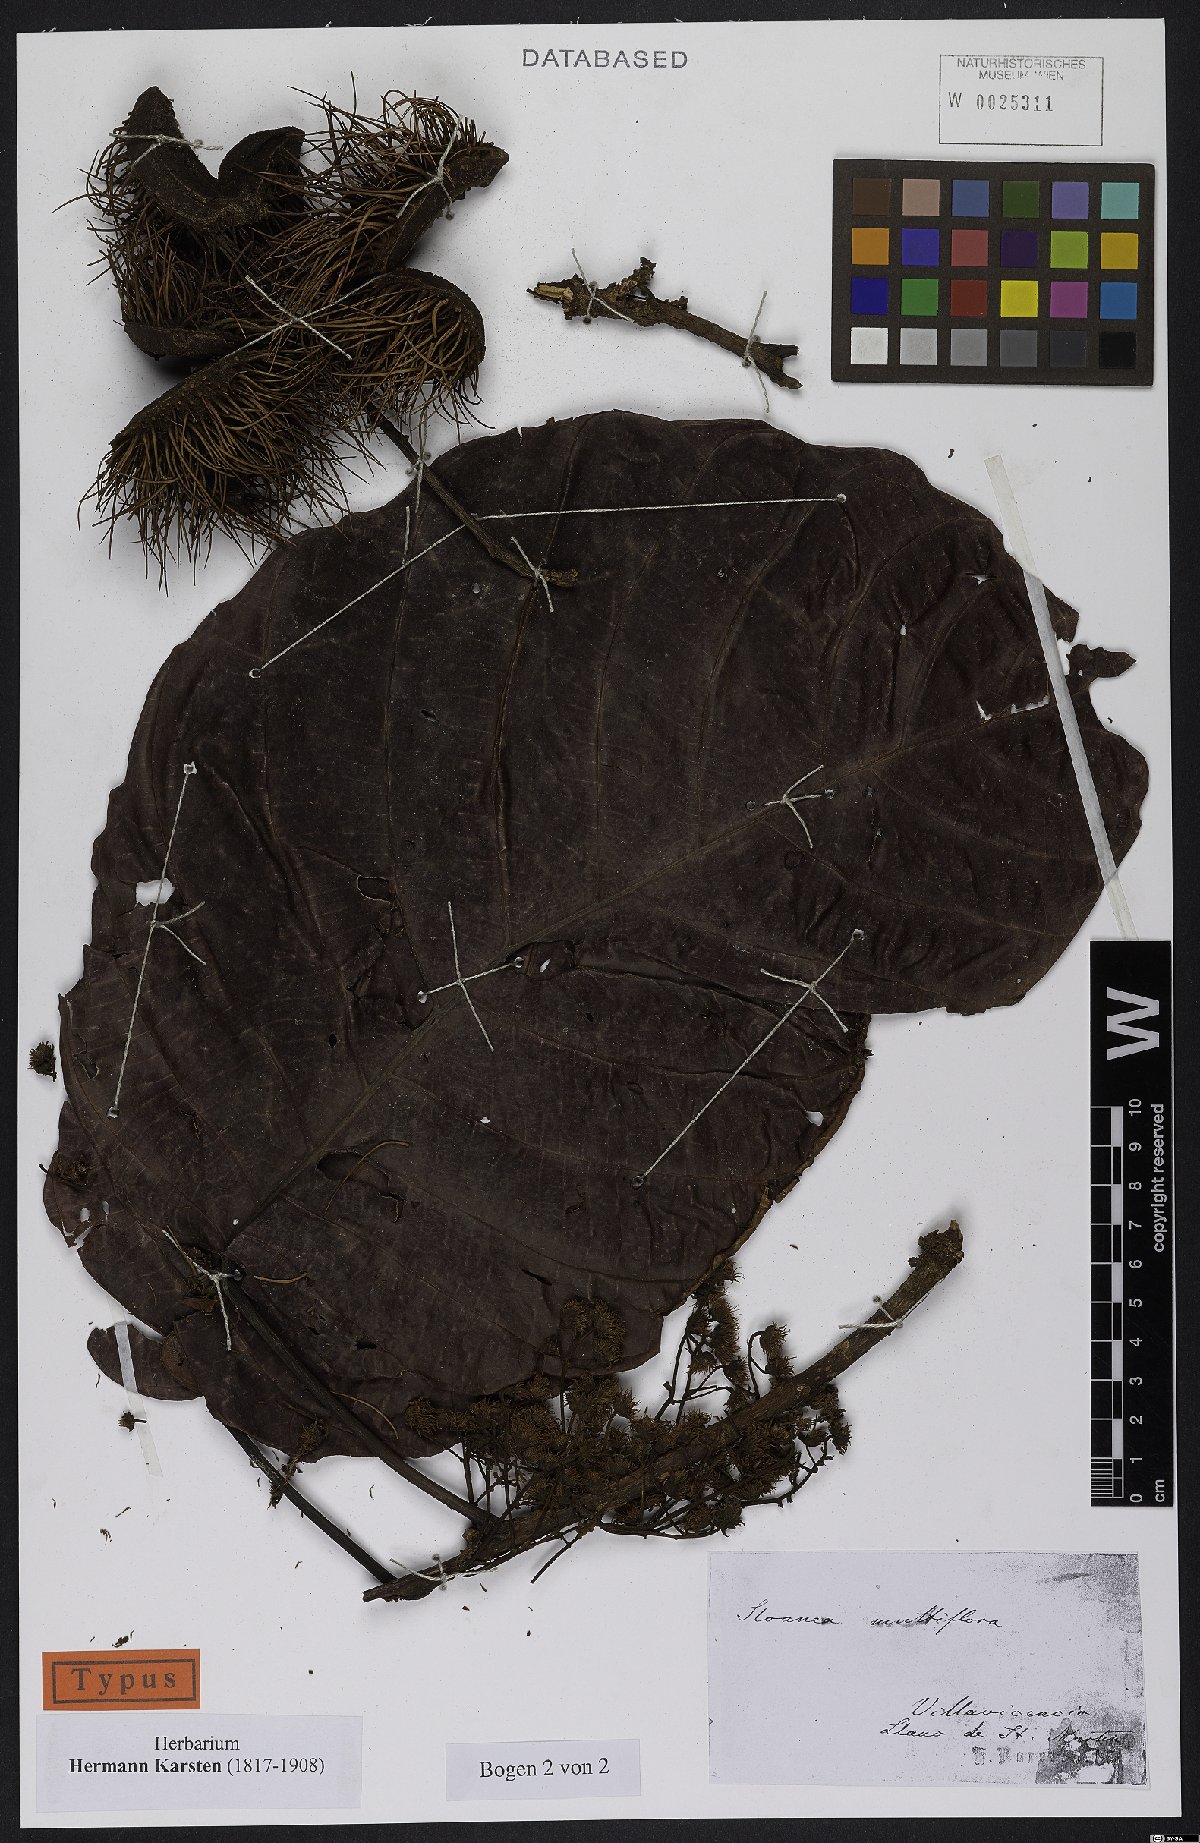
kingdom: Plantae
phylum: Tracheophyta
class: Magnoliopsida
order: Oxalidales
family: Elaeocarpaceae
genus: Sloanea
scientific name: Sloanea castanocarpa
